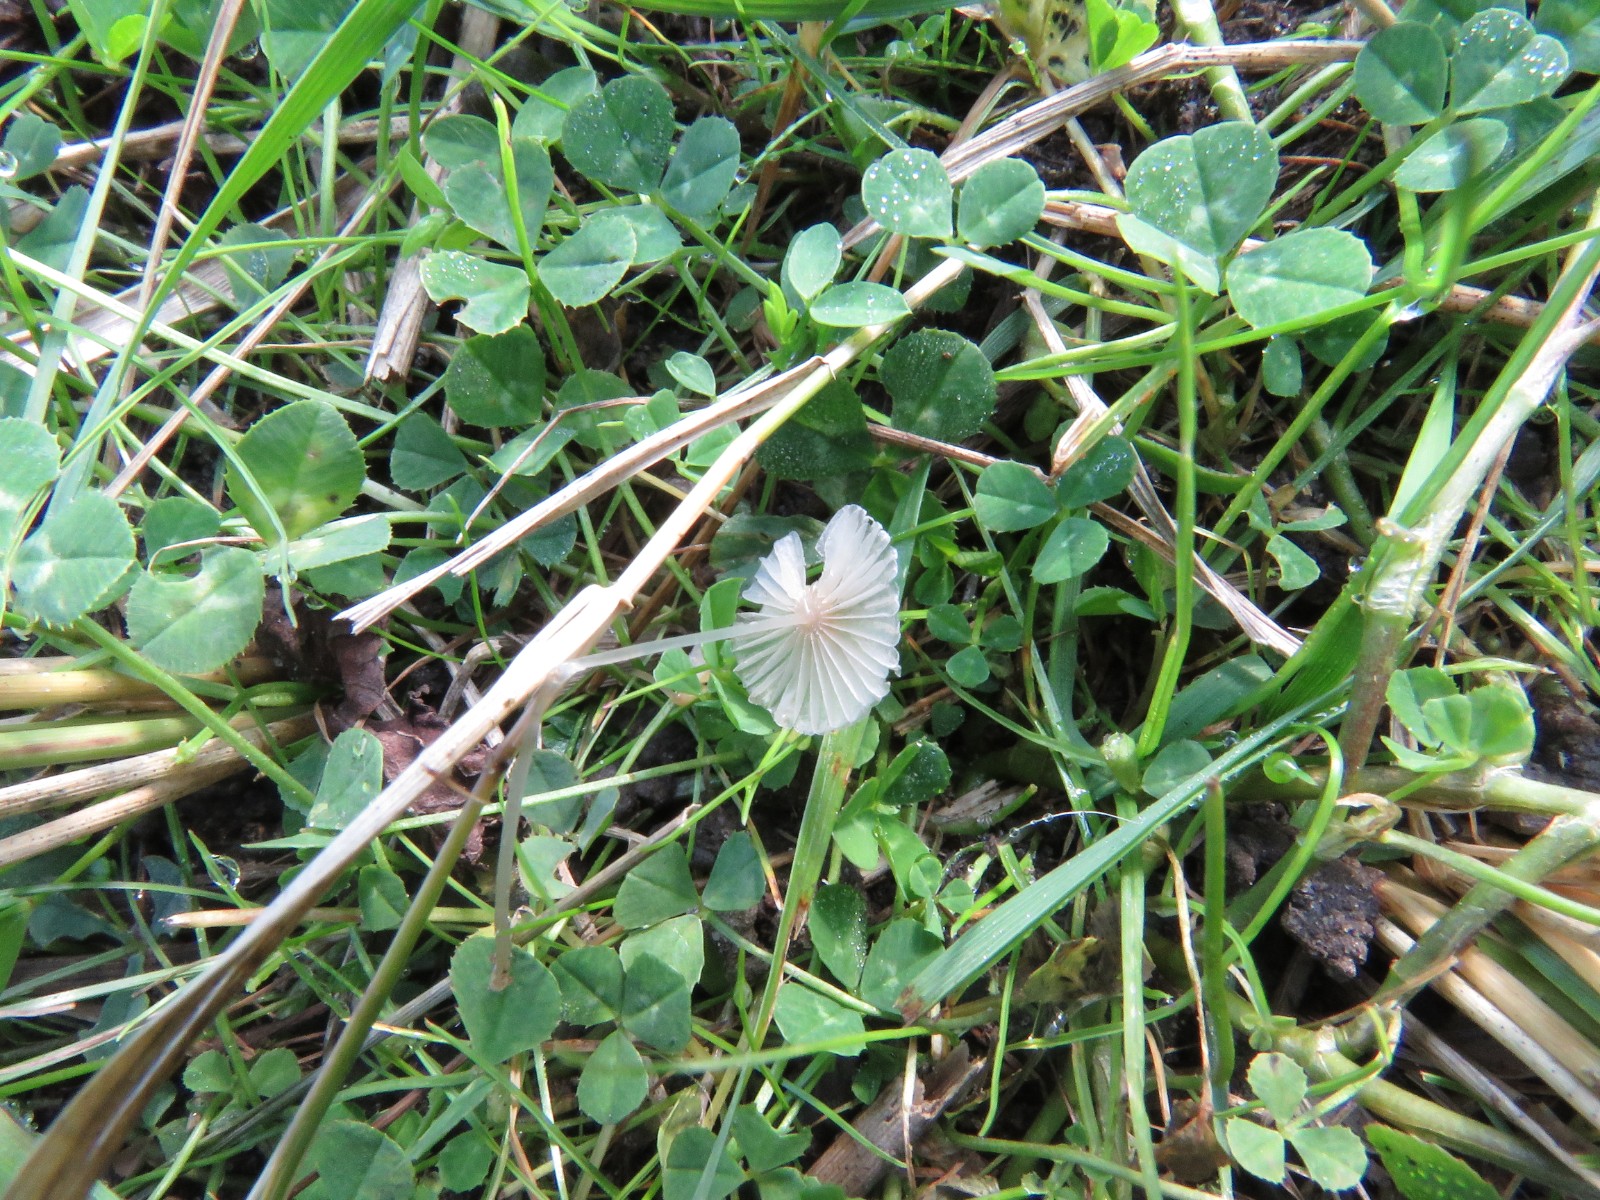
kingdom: Fungi
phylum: Basidiomycota
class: Agaricomycetes
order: Agaricales
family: Psathyrellaceae
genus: Parasola
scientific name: Parasola
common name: hjulhat
